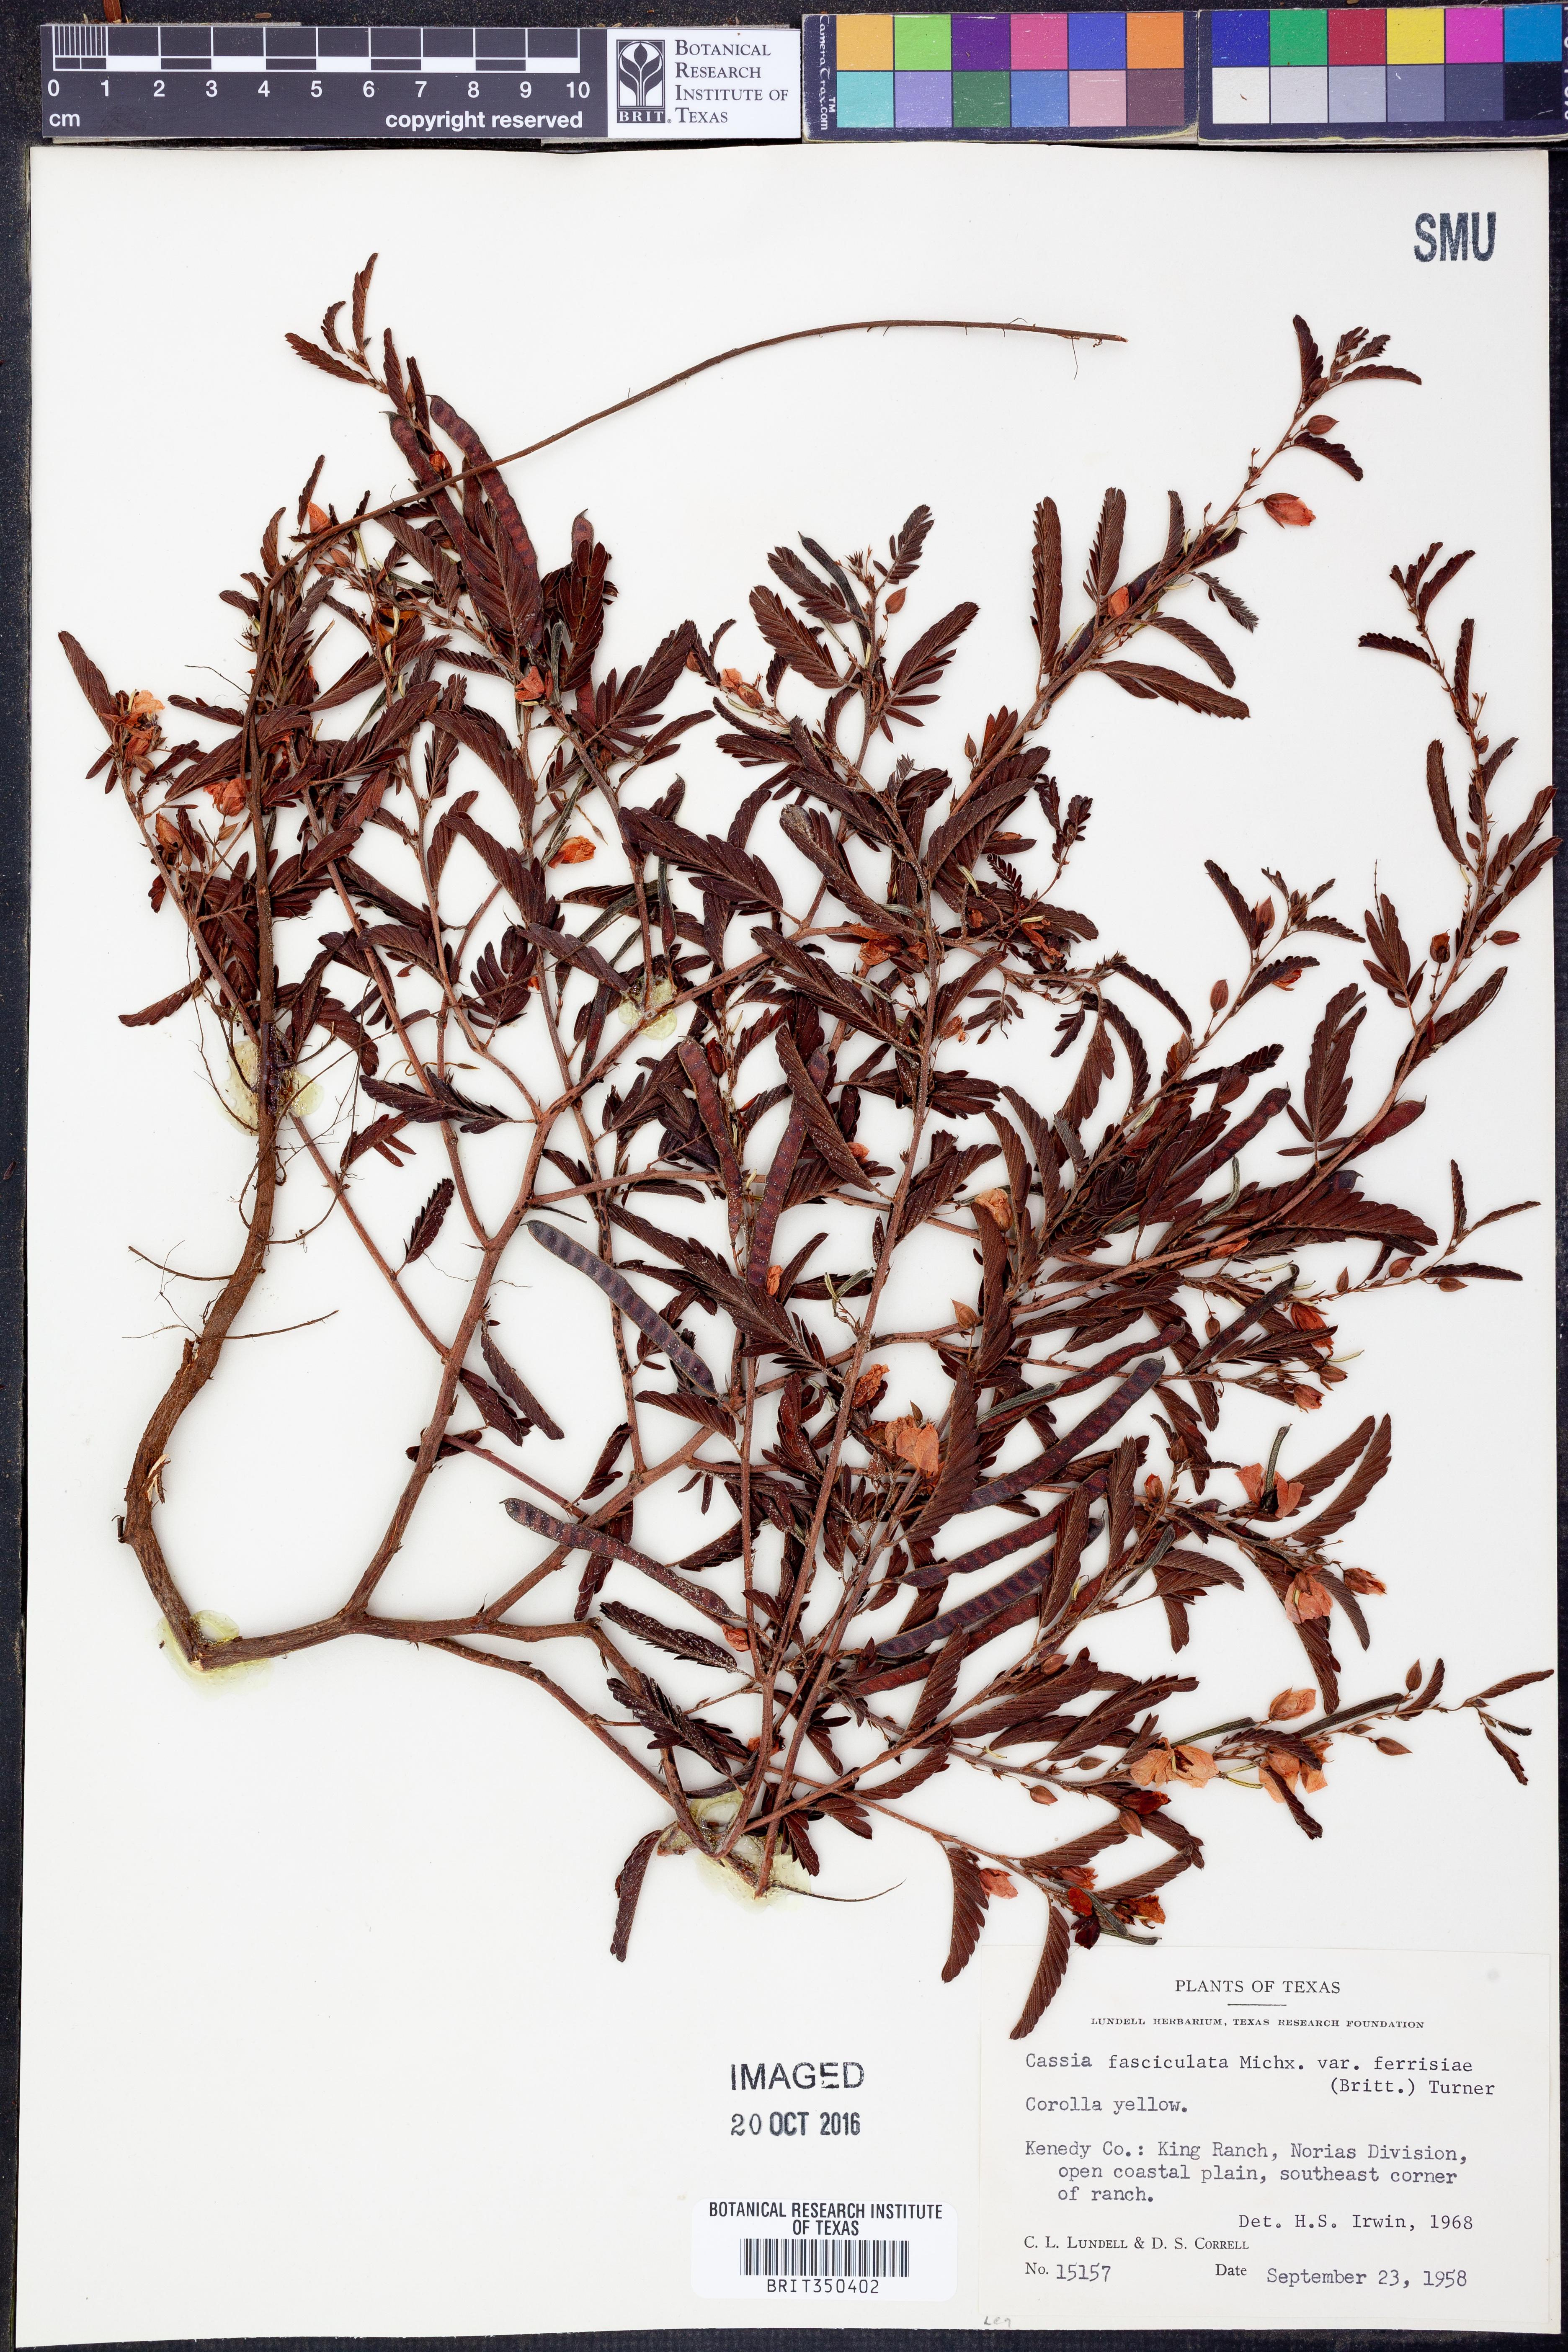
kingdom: Plantae
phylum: Tracheophyta
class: Magnoliopsida
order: Fabales
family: Fabaceae
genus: Chamaecrista
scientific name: Chamaecrista fasciculata
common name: Golden cassia
